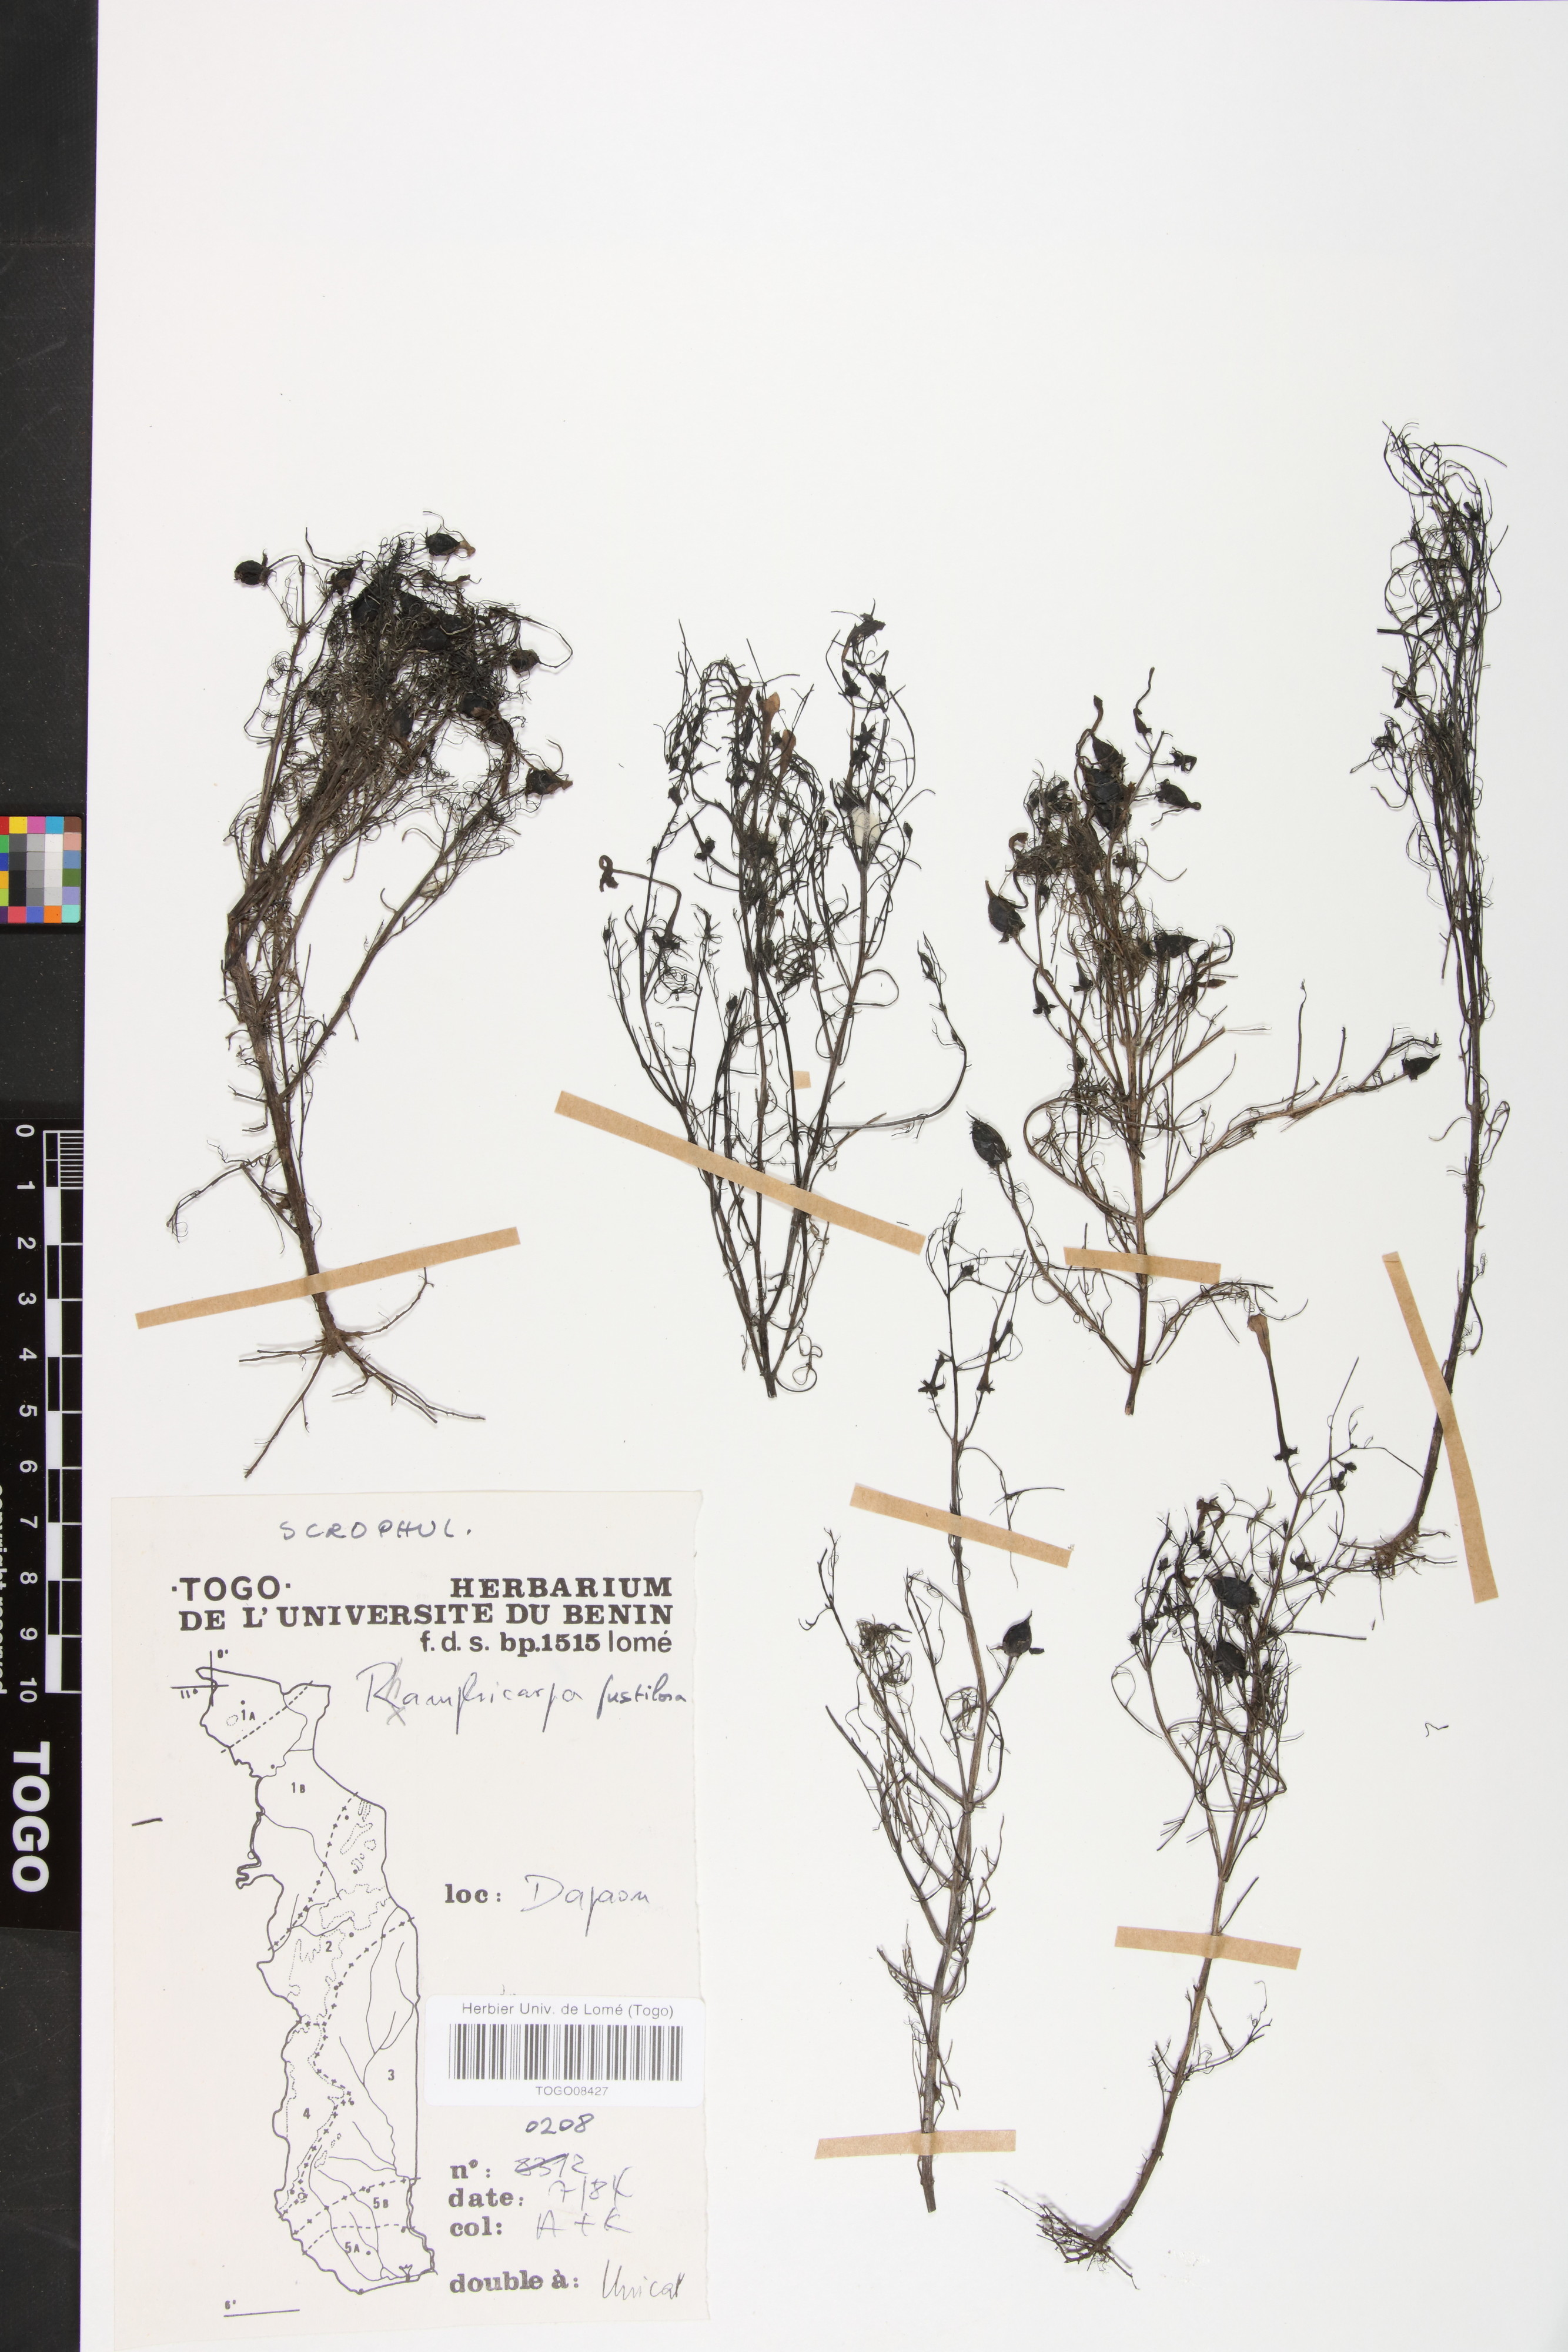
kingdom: Plantae
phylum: Tracheophyta
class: Magnoliopsida
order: Lamiales
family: Orobanchaceae
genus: Rhamphicarpa
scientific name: Rhamphicarpa fistulosa
